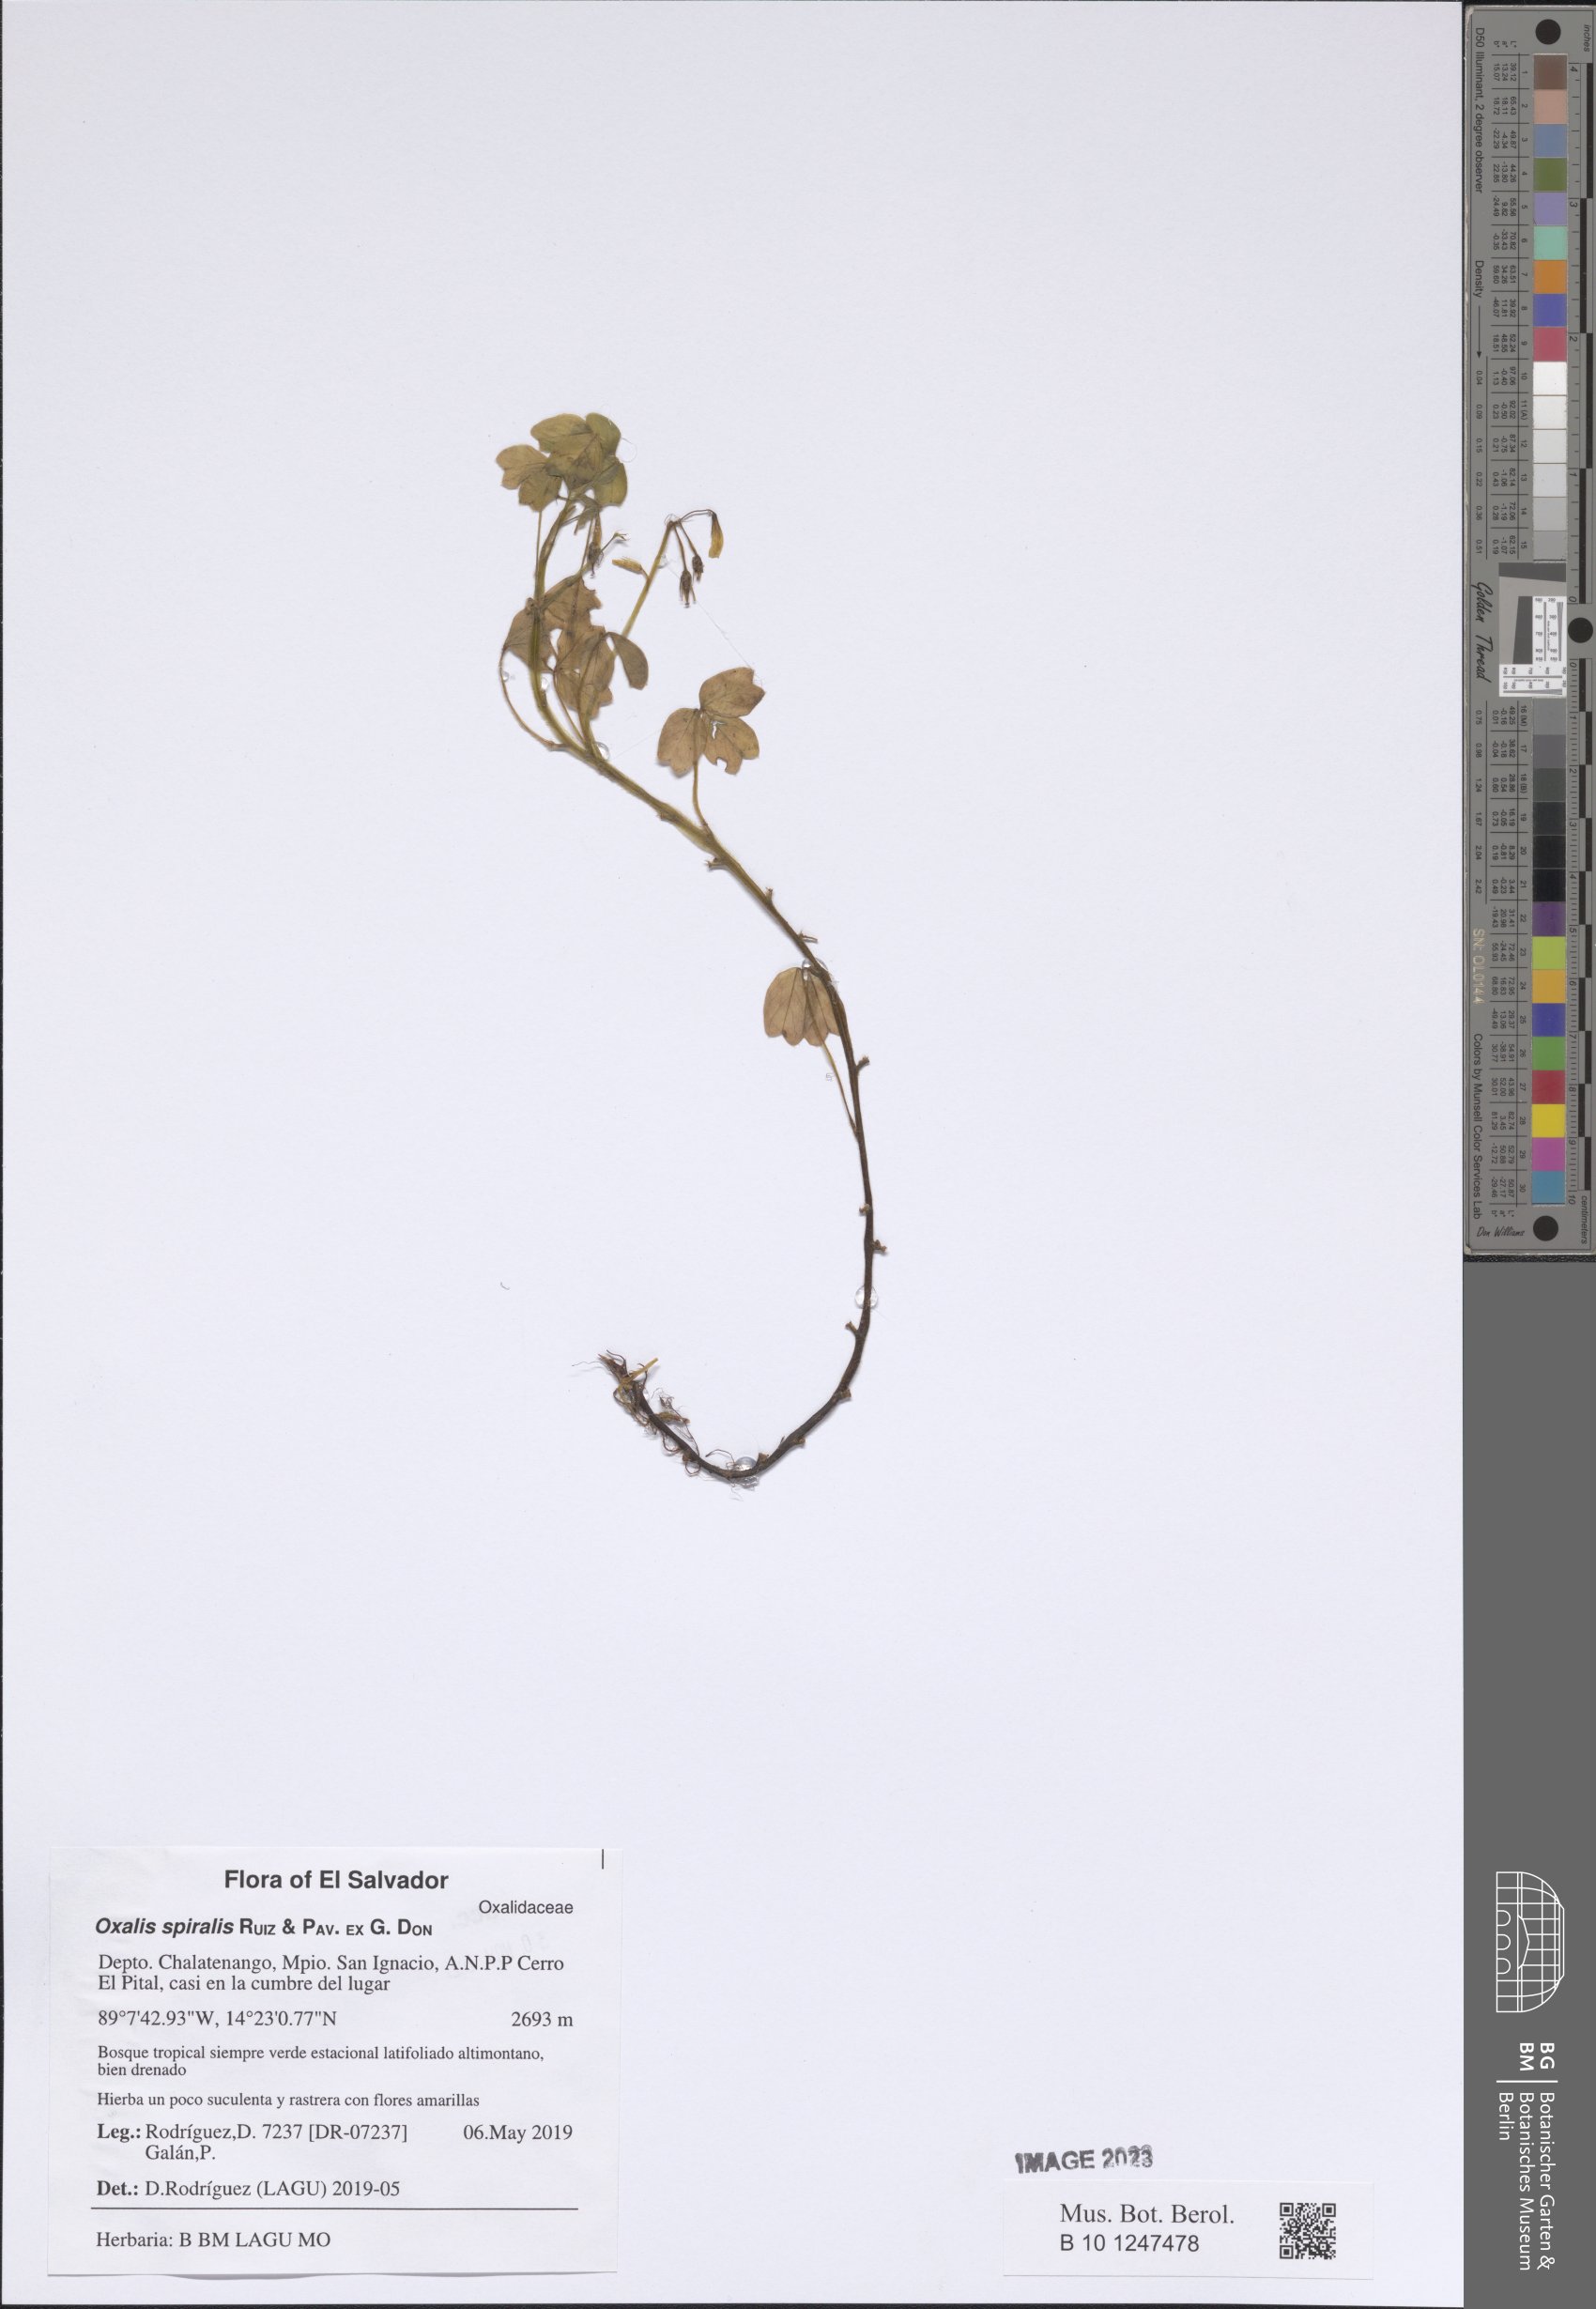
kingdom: Plantae
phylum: Tracheophyta
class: Magnoliopsida
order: Oxalidales
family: Oxalidaceae
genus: Oxalis
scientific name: Oxalis spiralis
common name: Spiral sorrel
